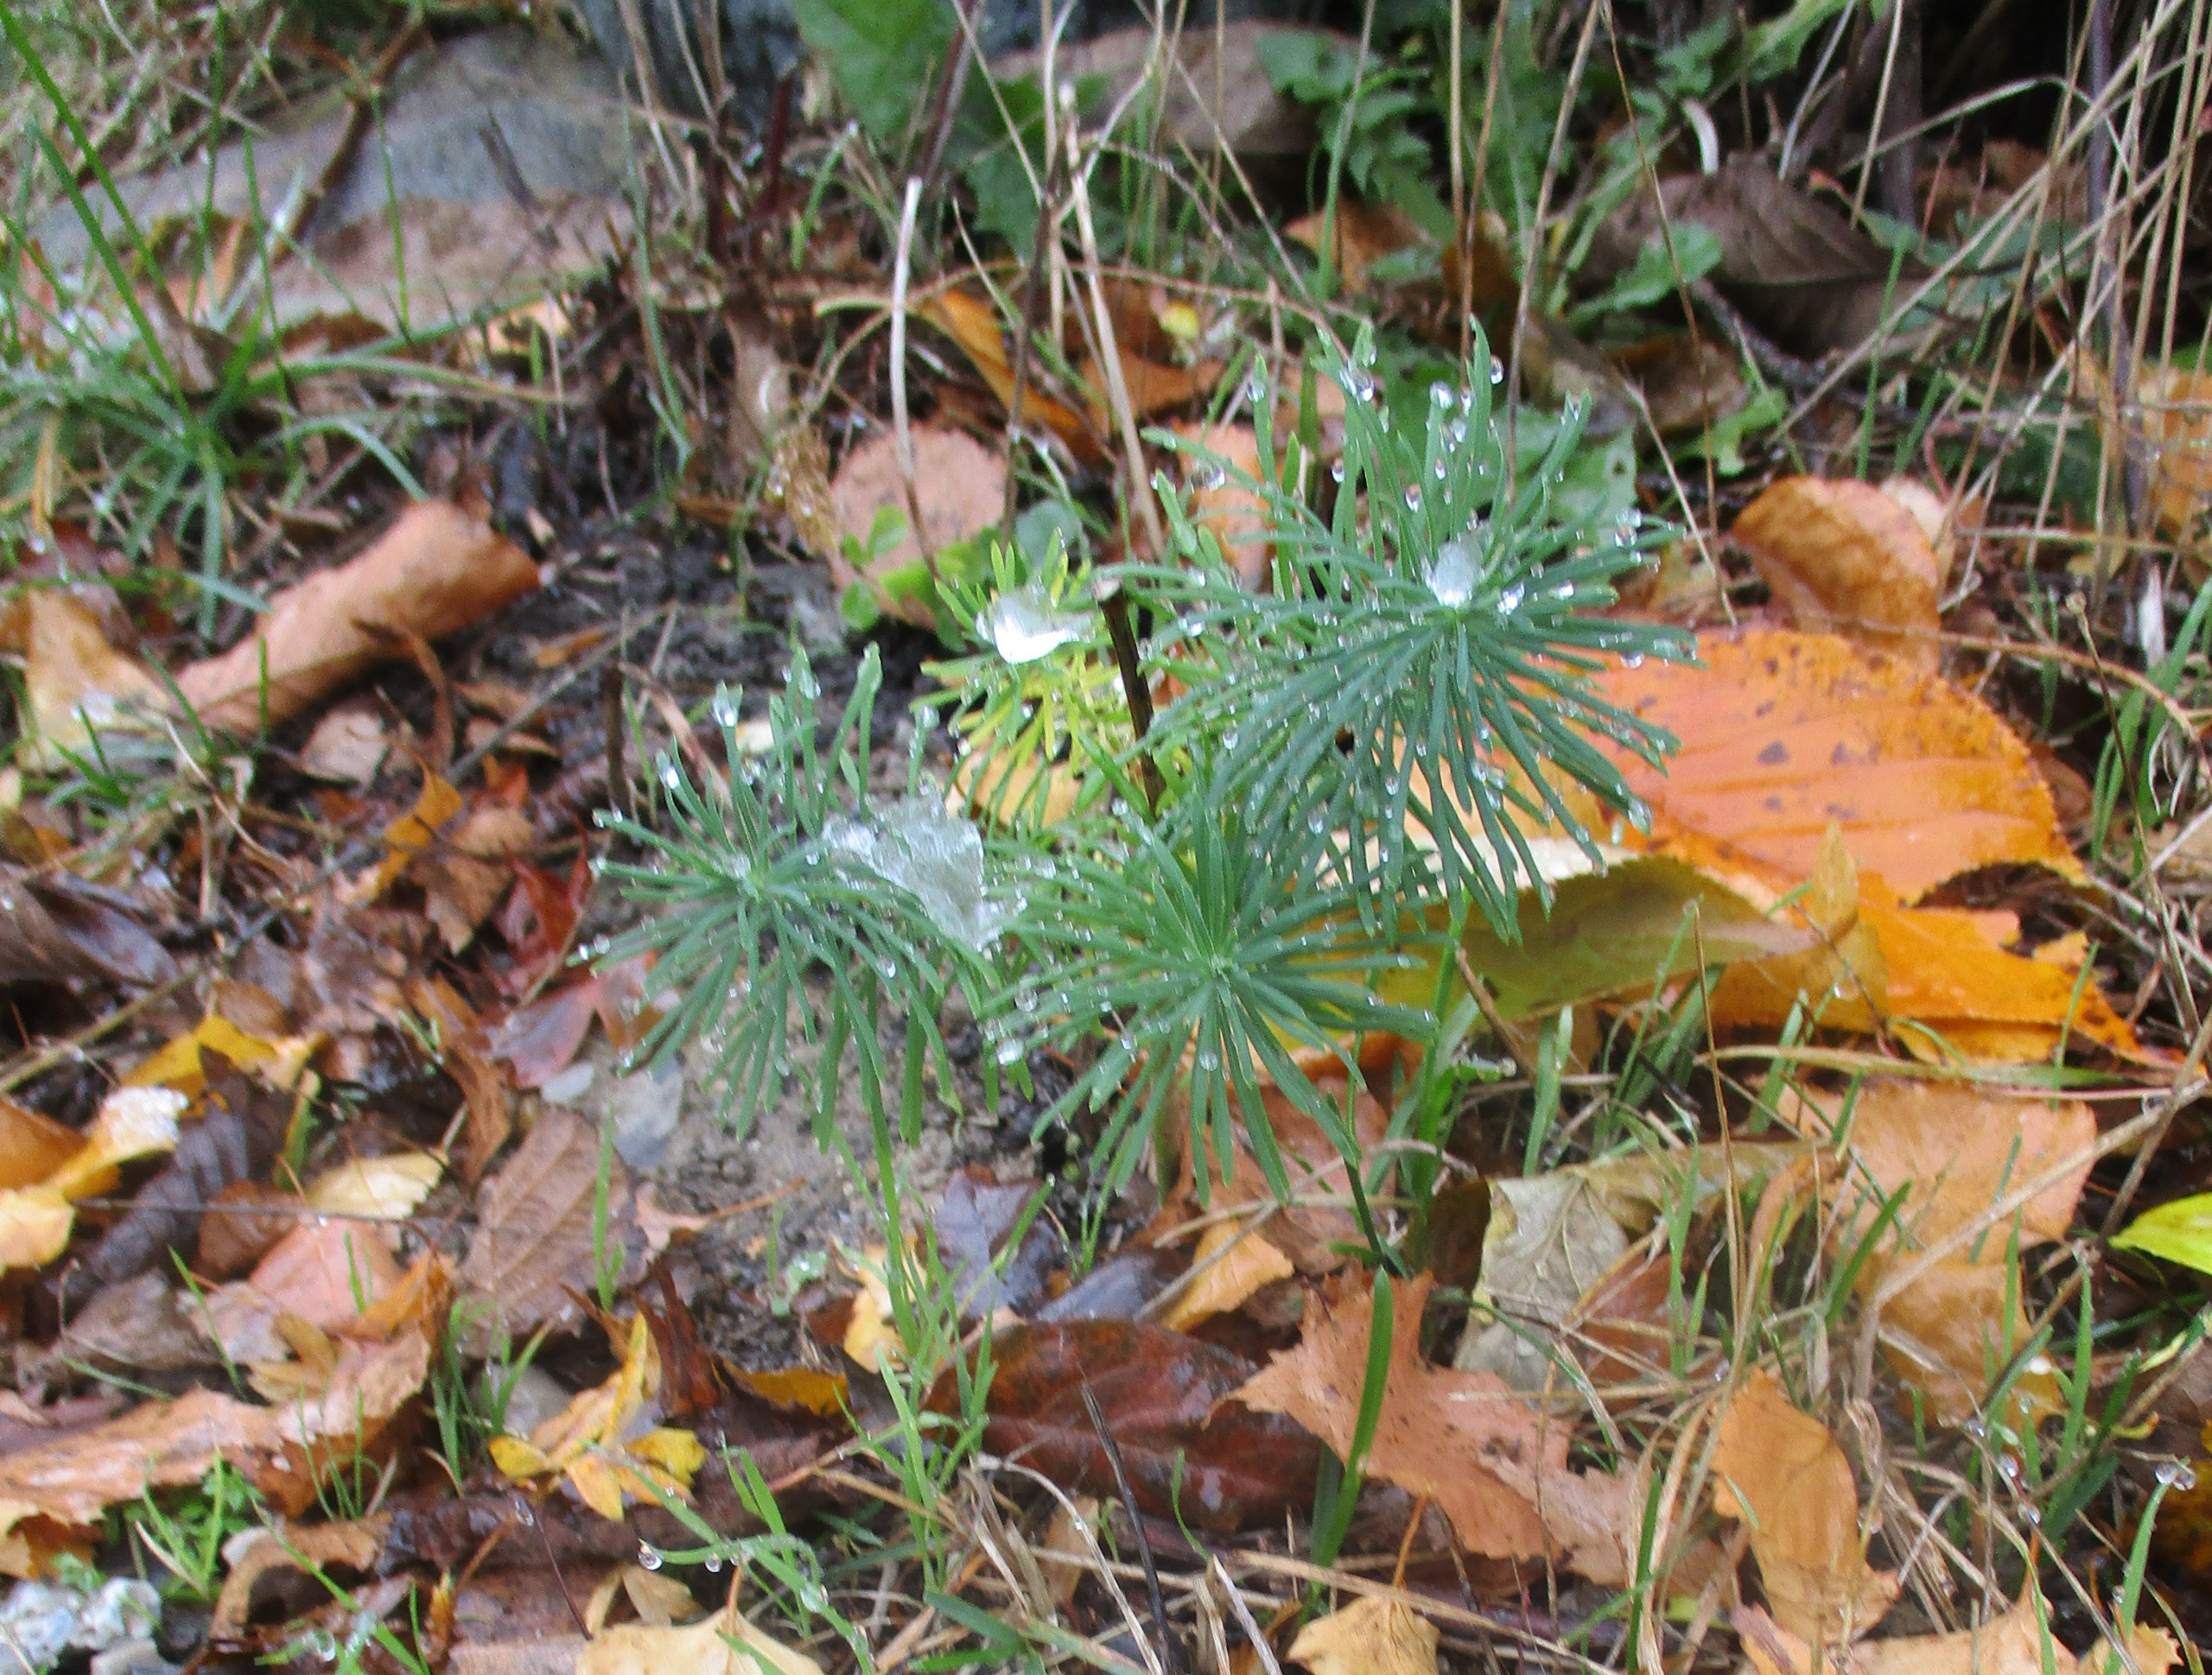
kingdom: Plantae
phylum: Tracheophyta
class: Magnoliopsida
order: Malpighiales
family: Euphorbiaceae
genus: Euphorbia
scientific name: Euphorbia cyparissias
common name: Cypres-vortemælk
